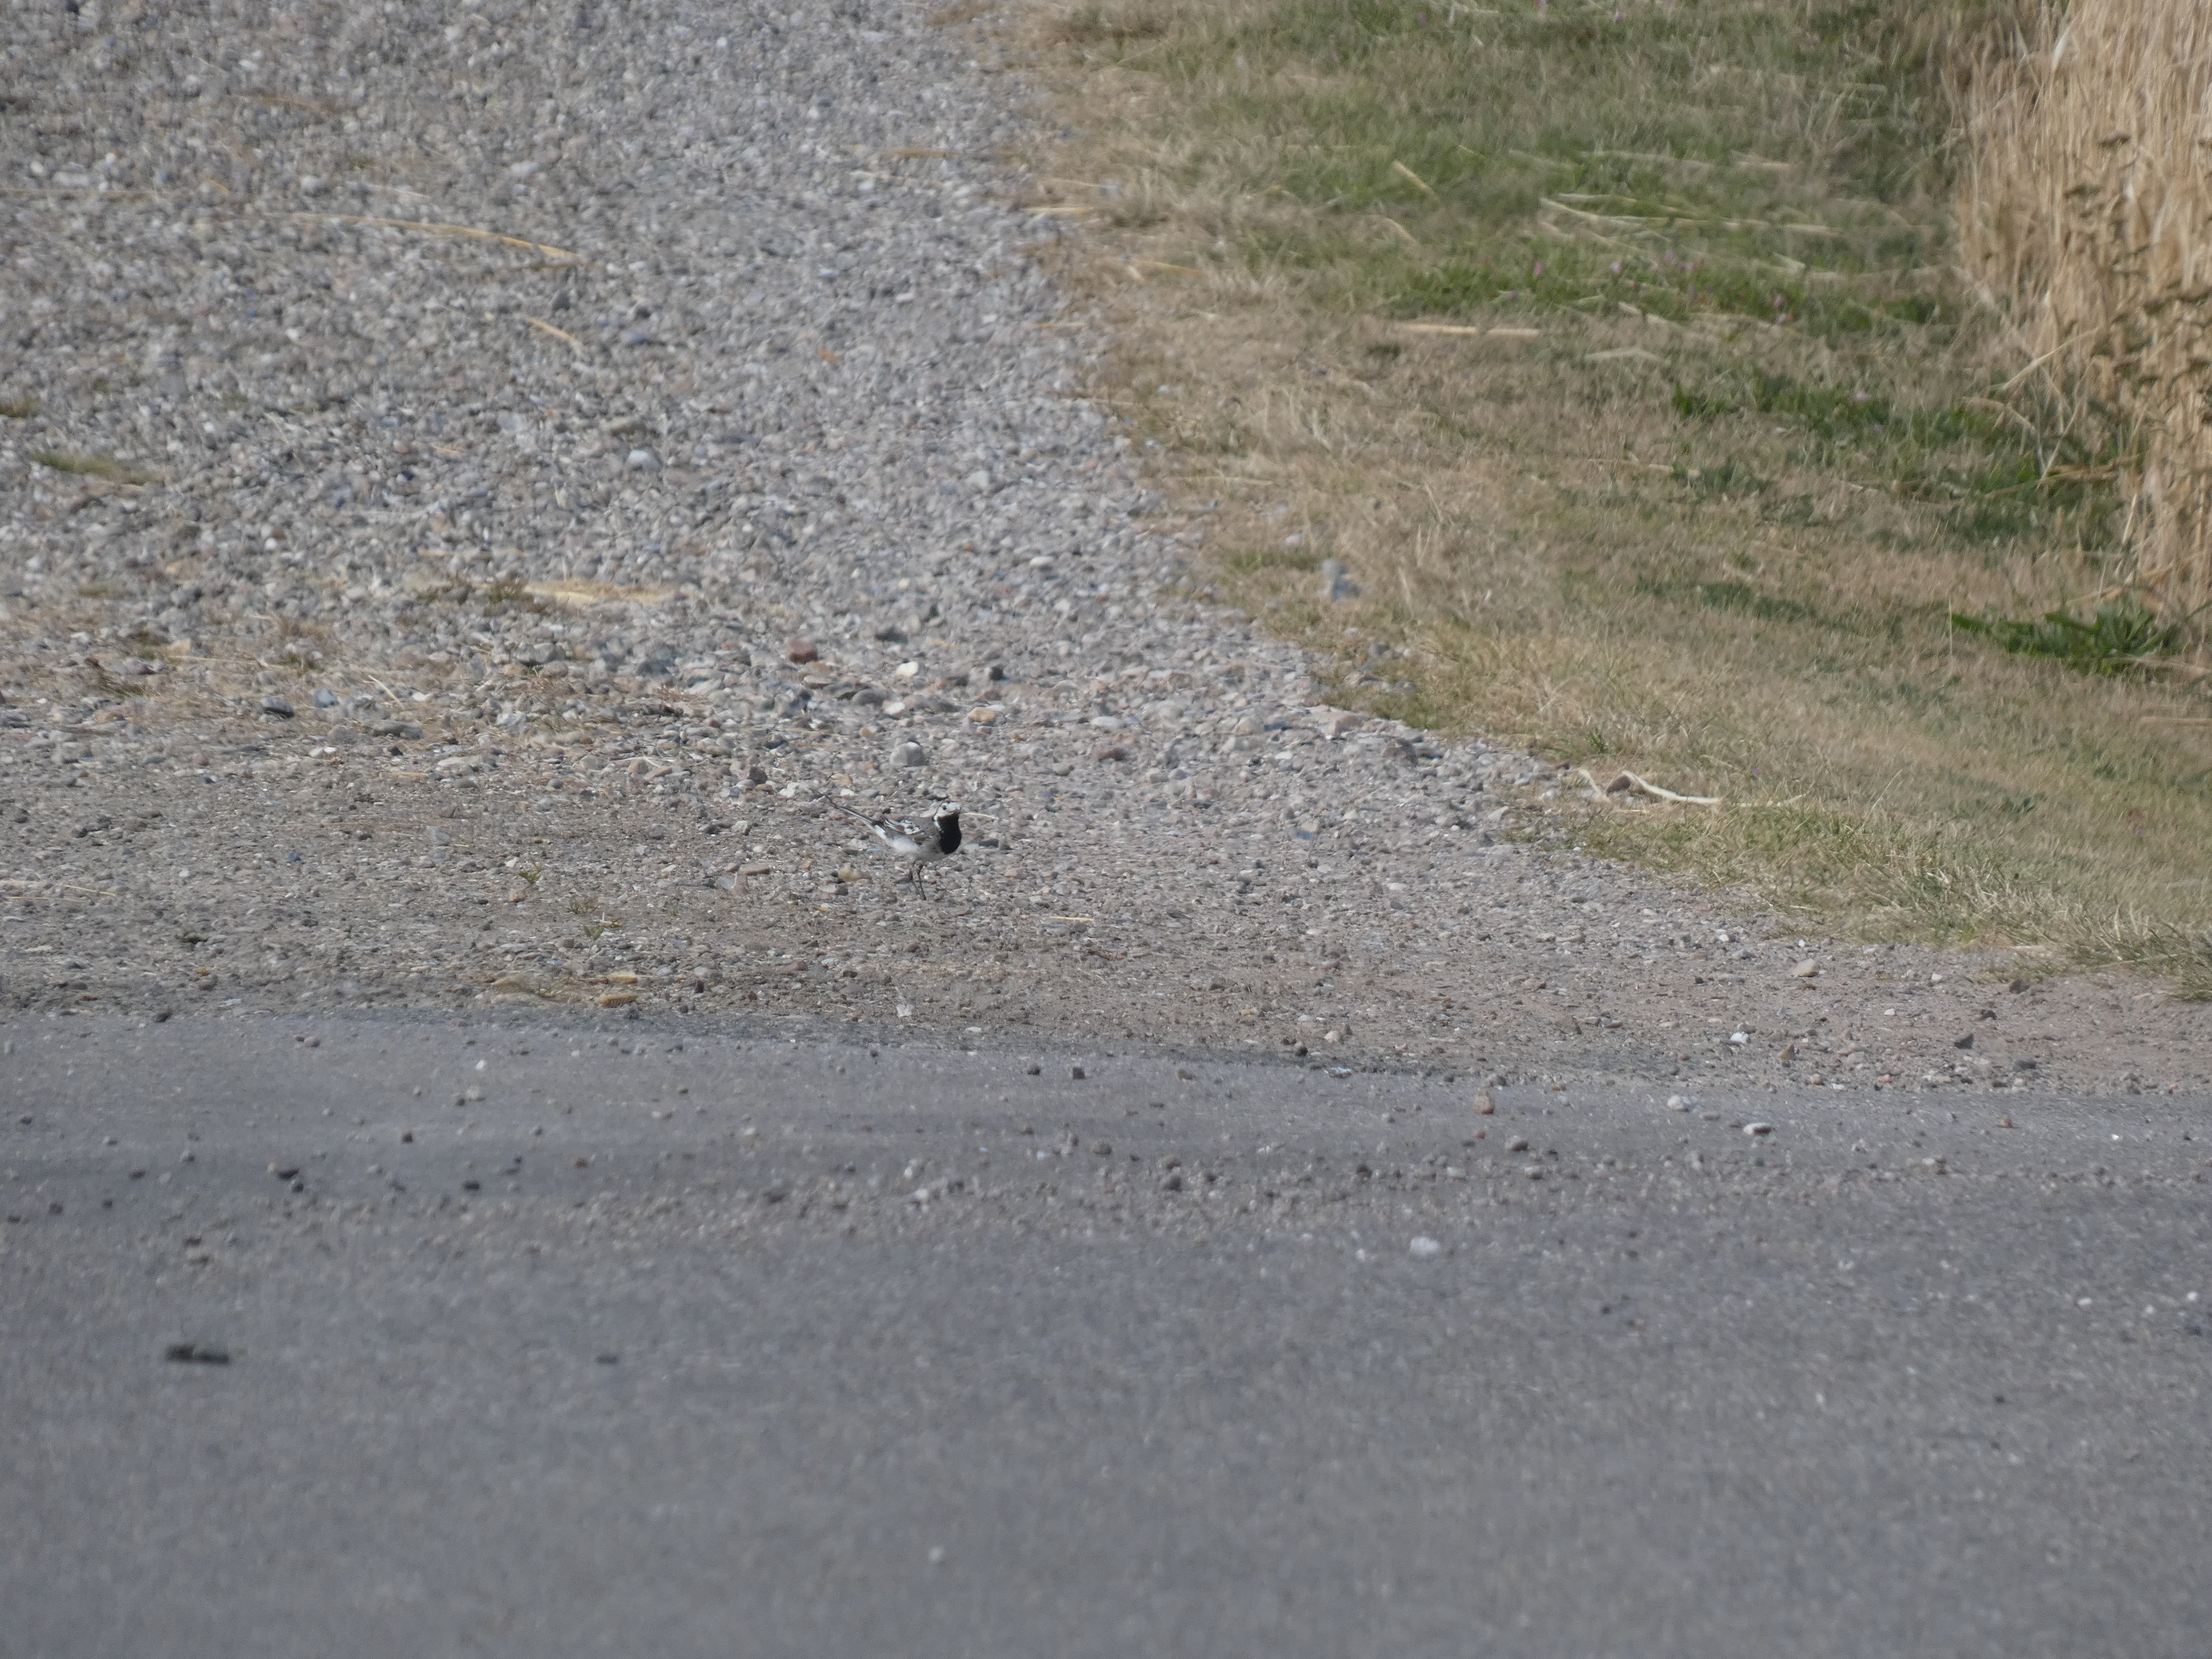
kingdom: Animalia
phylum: Chordata
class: Aves
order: Passeriformes
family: Motacillidae
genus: Motacilla
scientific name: Motacilla alba
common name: Hvid vipstjert
